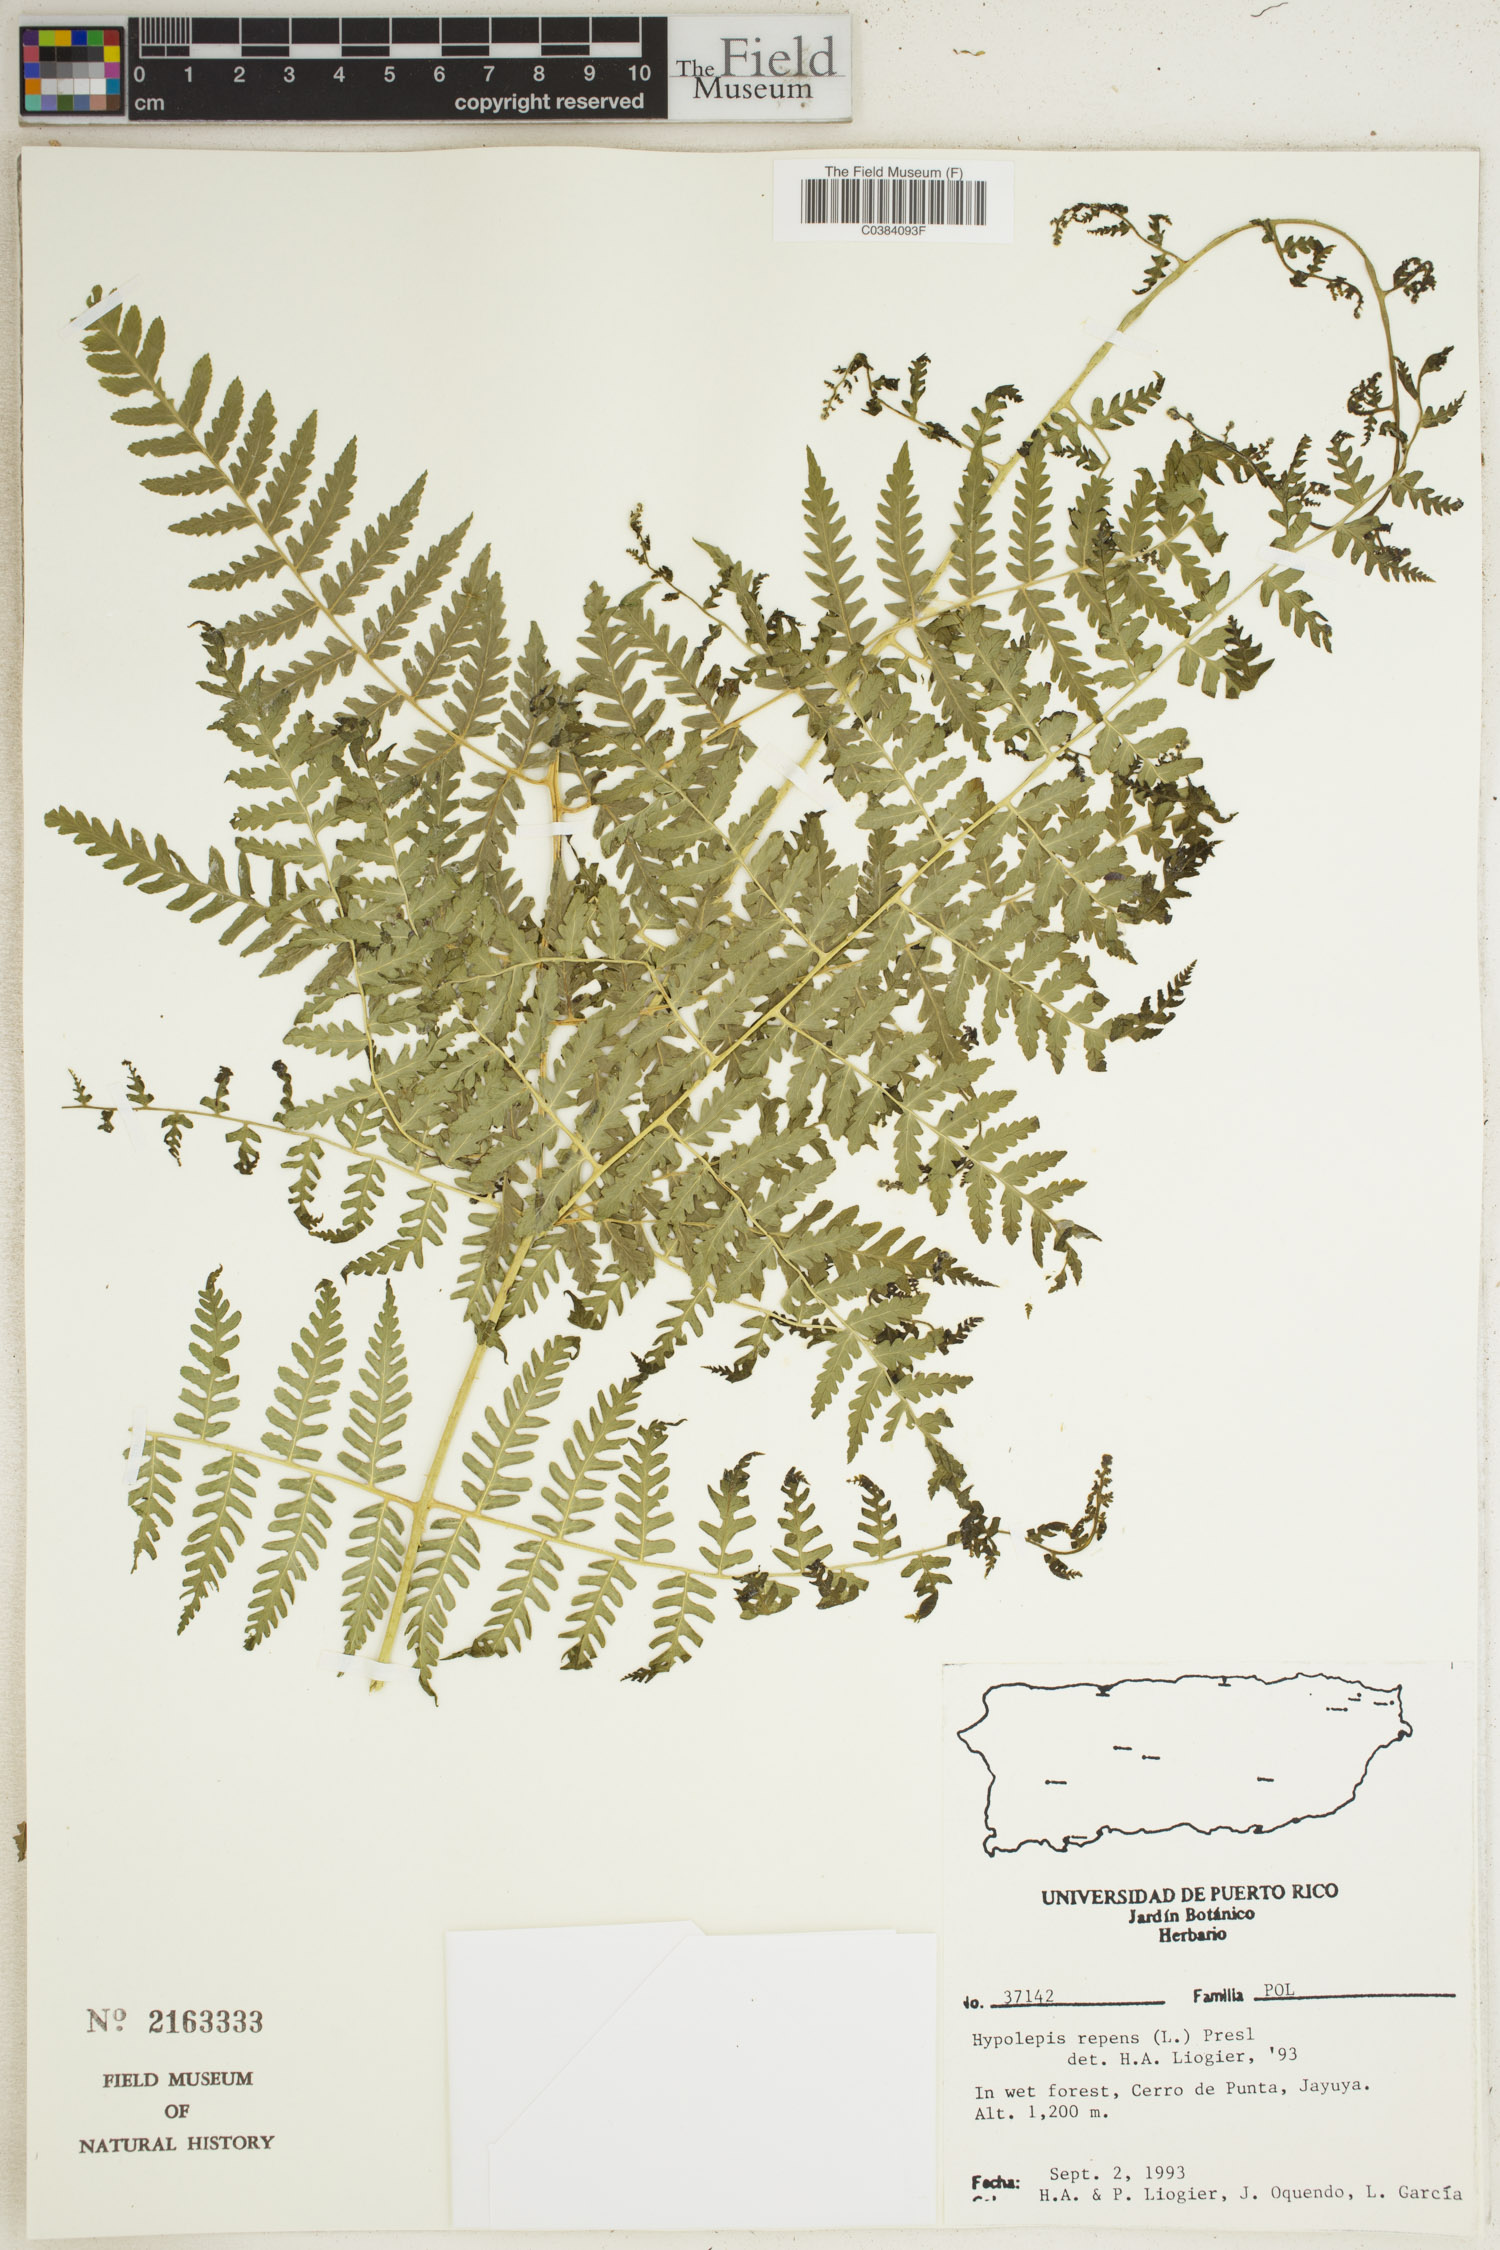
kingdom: Plantae
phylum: Tracheophyta
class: Polypodiopsida
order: Polypodiales
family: Dennstaedtiaceae
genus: Hypolepis
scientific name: Hypolepis repens
